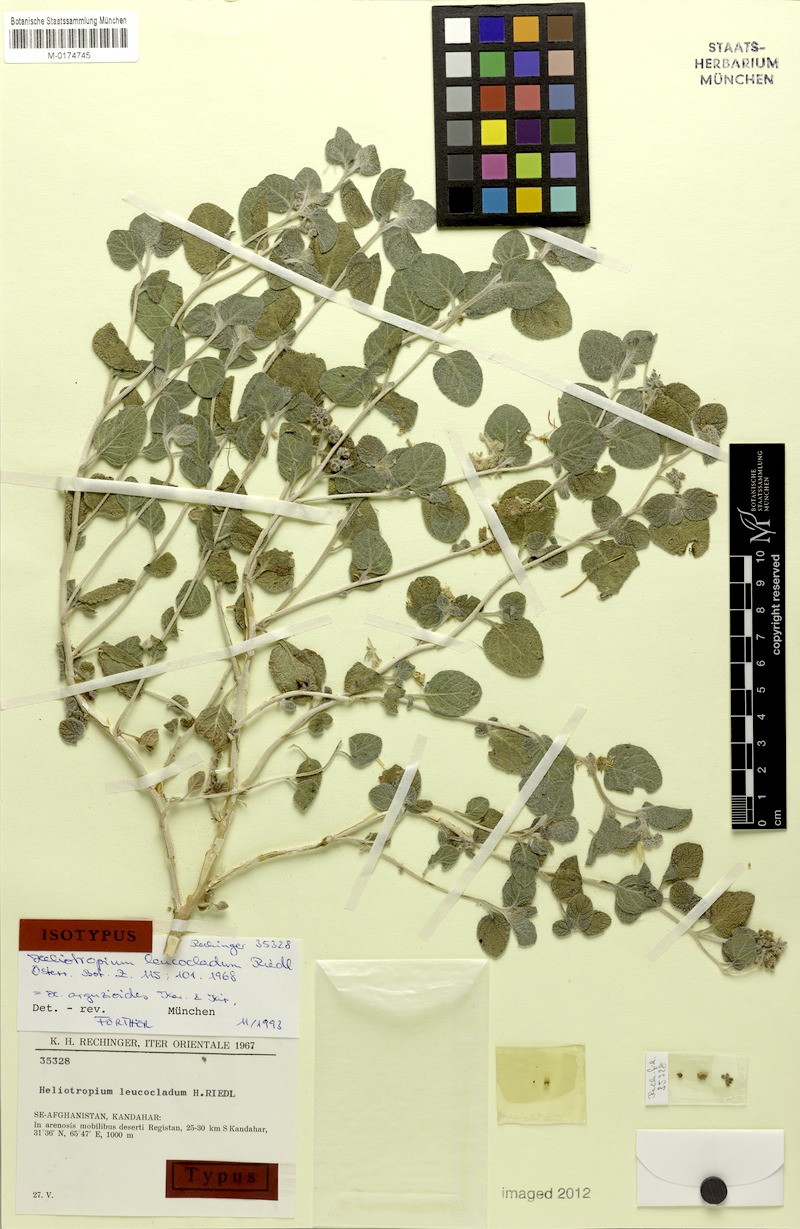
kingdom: Plantae
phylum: Tracheophyta
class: Magnoliopsida
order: Boraginales
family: Heliotropiaceae
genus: Heliotropium
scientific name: Heliotropium arguzioides
